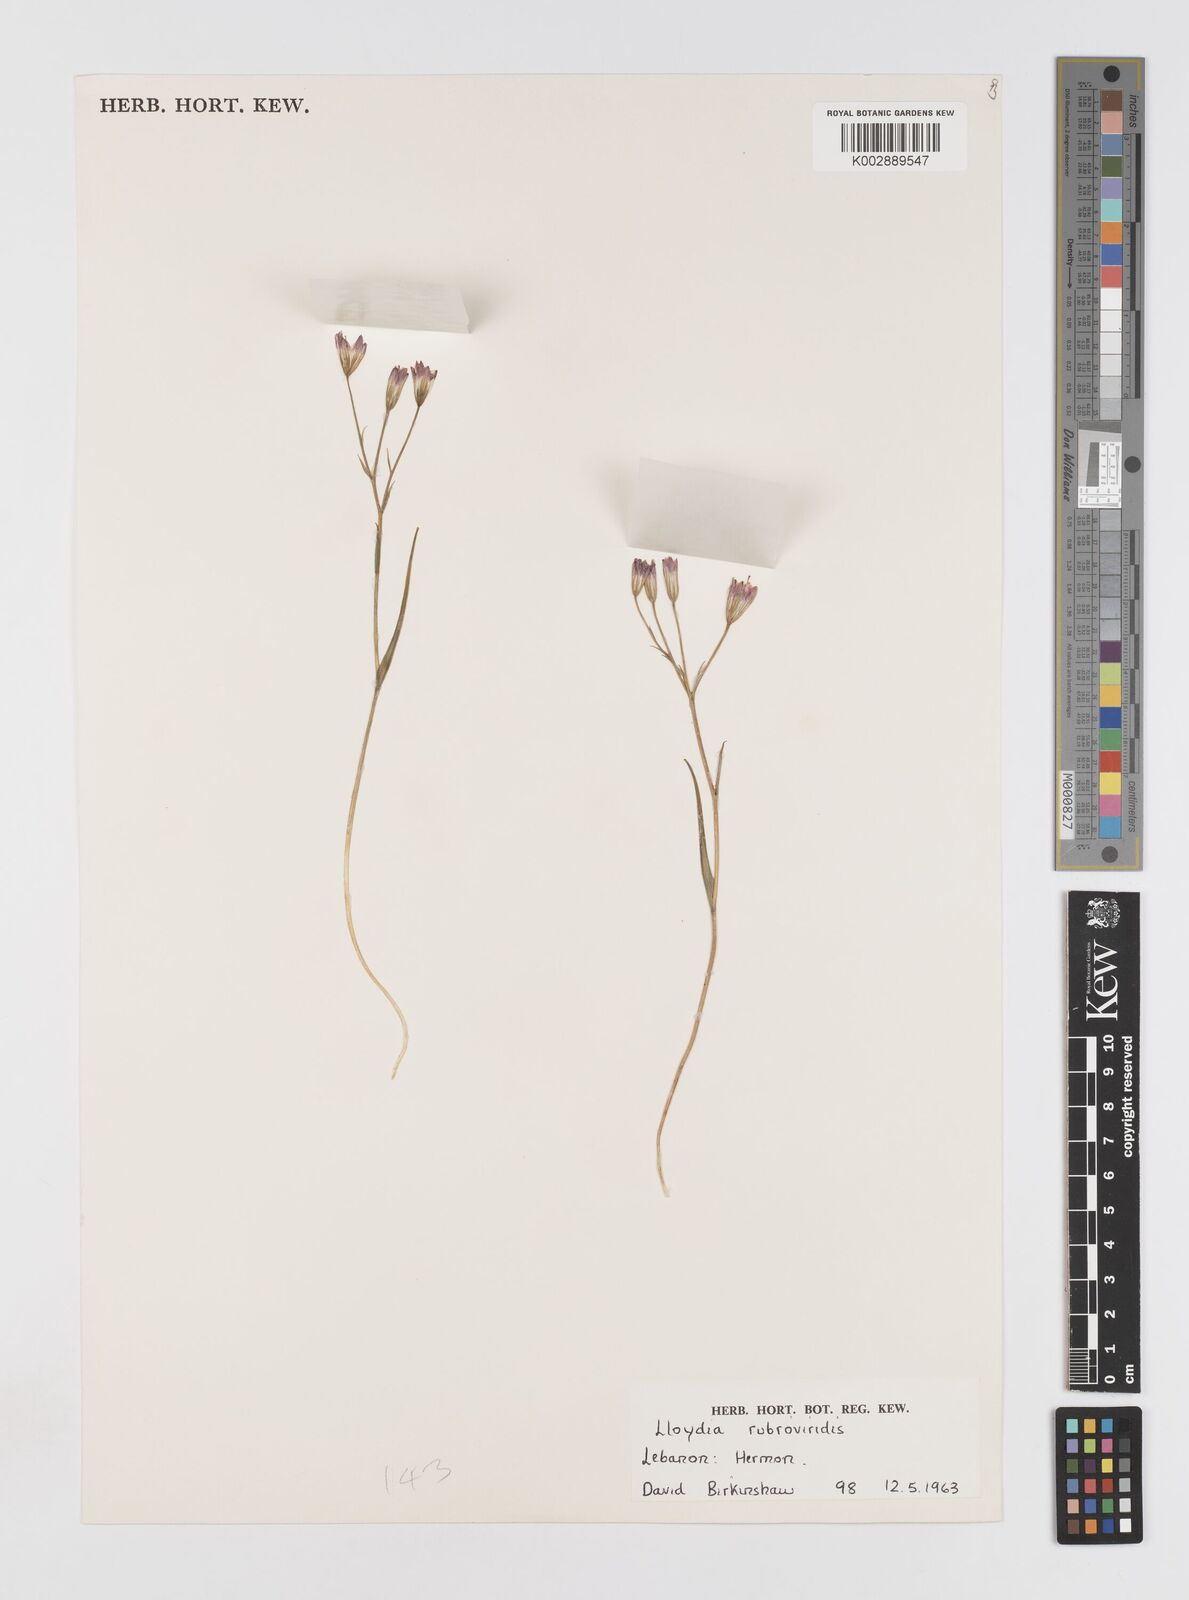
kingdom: Plantae
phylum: Tracheophyta
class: Liliopsida
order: Liliales
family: Liliaceae
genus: Gagea
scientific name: Gagea libanotica
